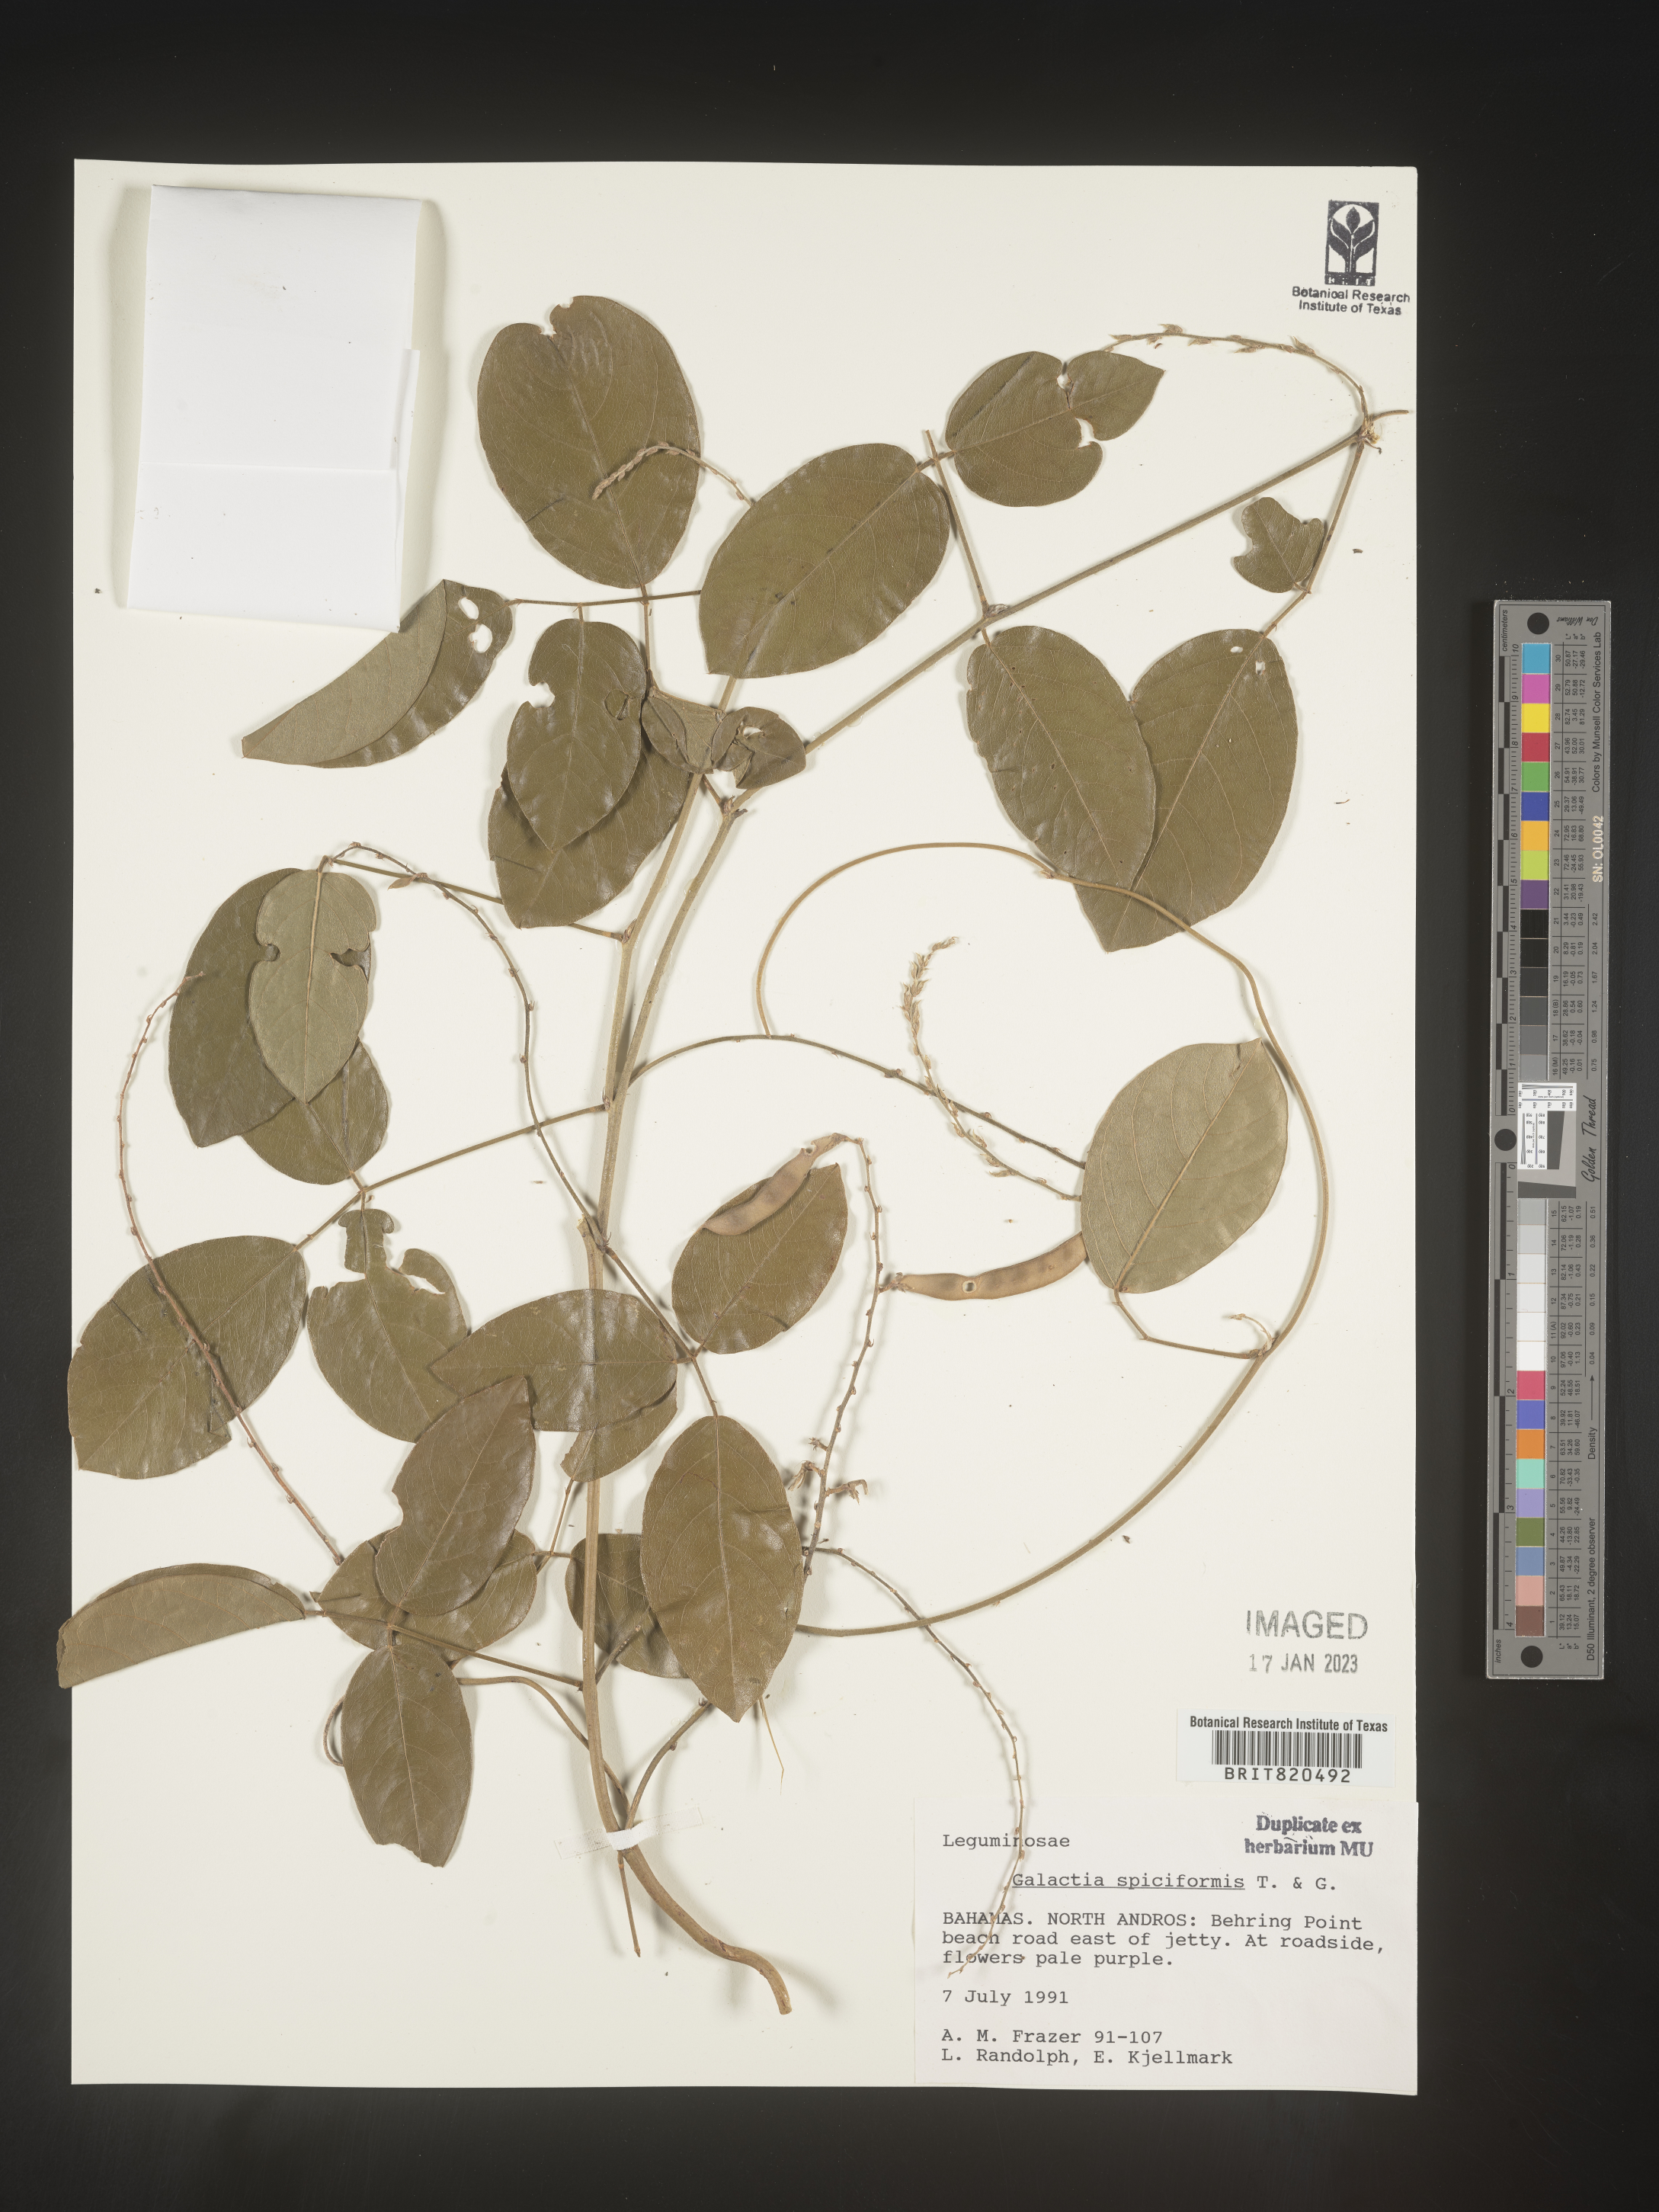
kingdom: Plantae
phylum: Tracheophyta
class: Magnoliopsida
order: Fabales
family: Fabaceae
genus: Galactia
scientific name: Galactia
